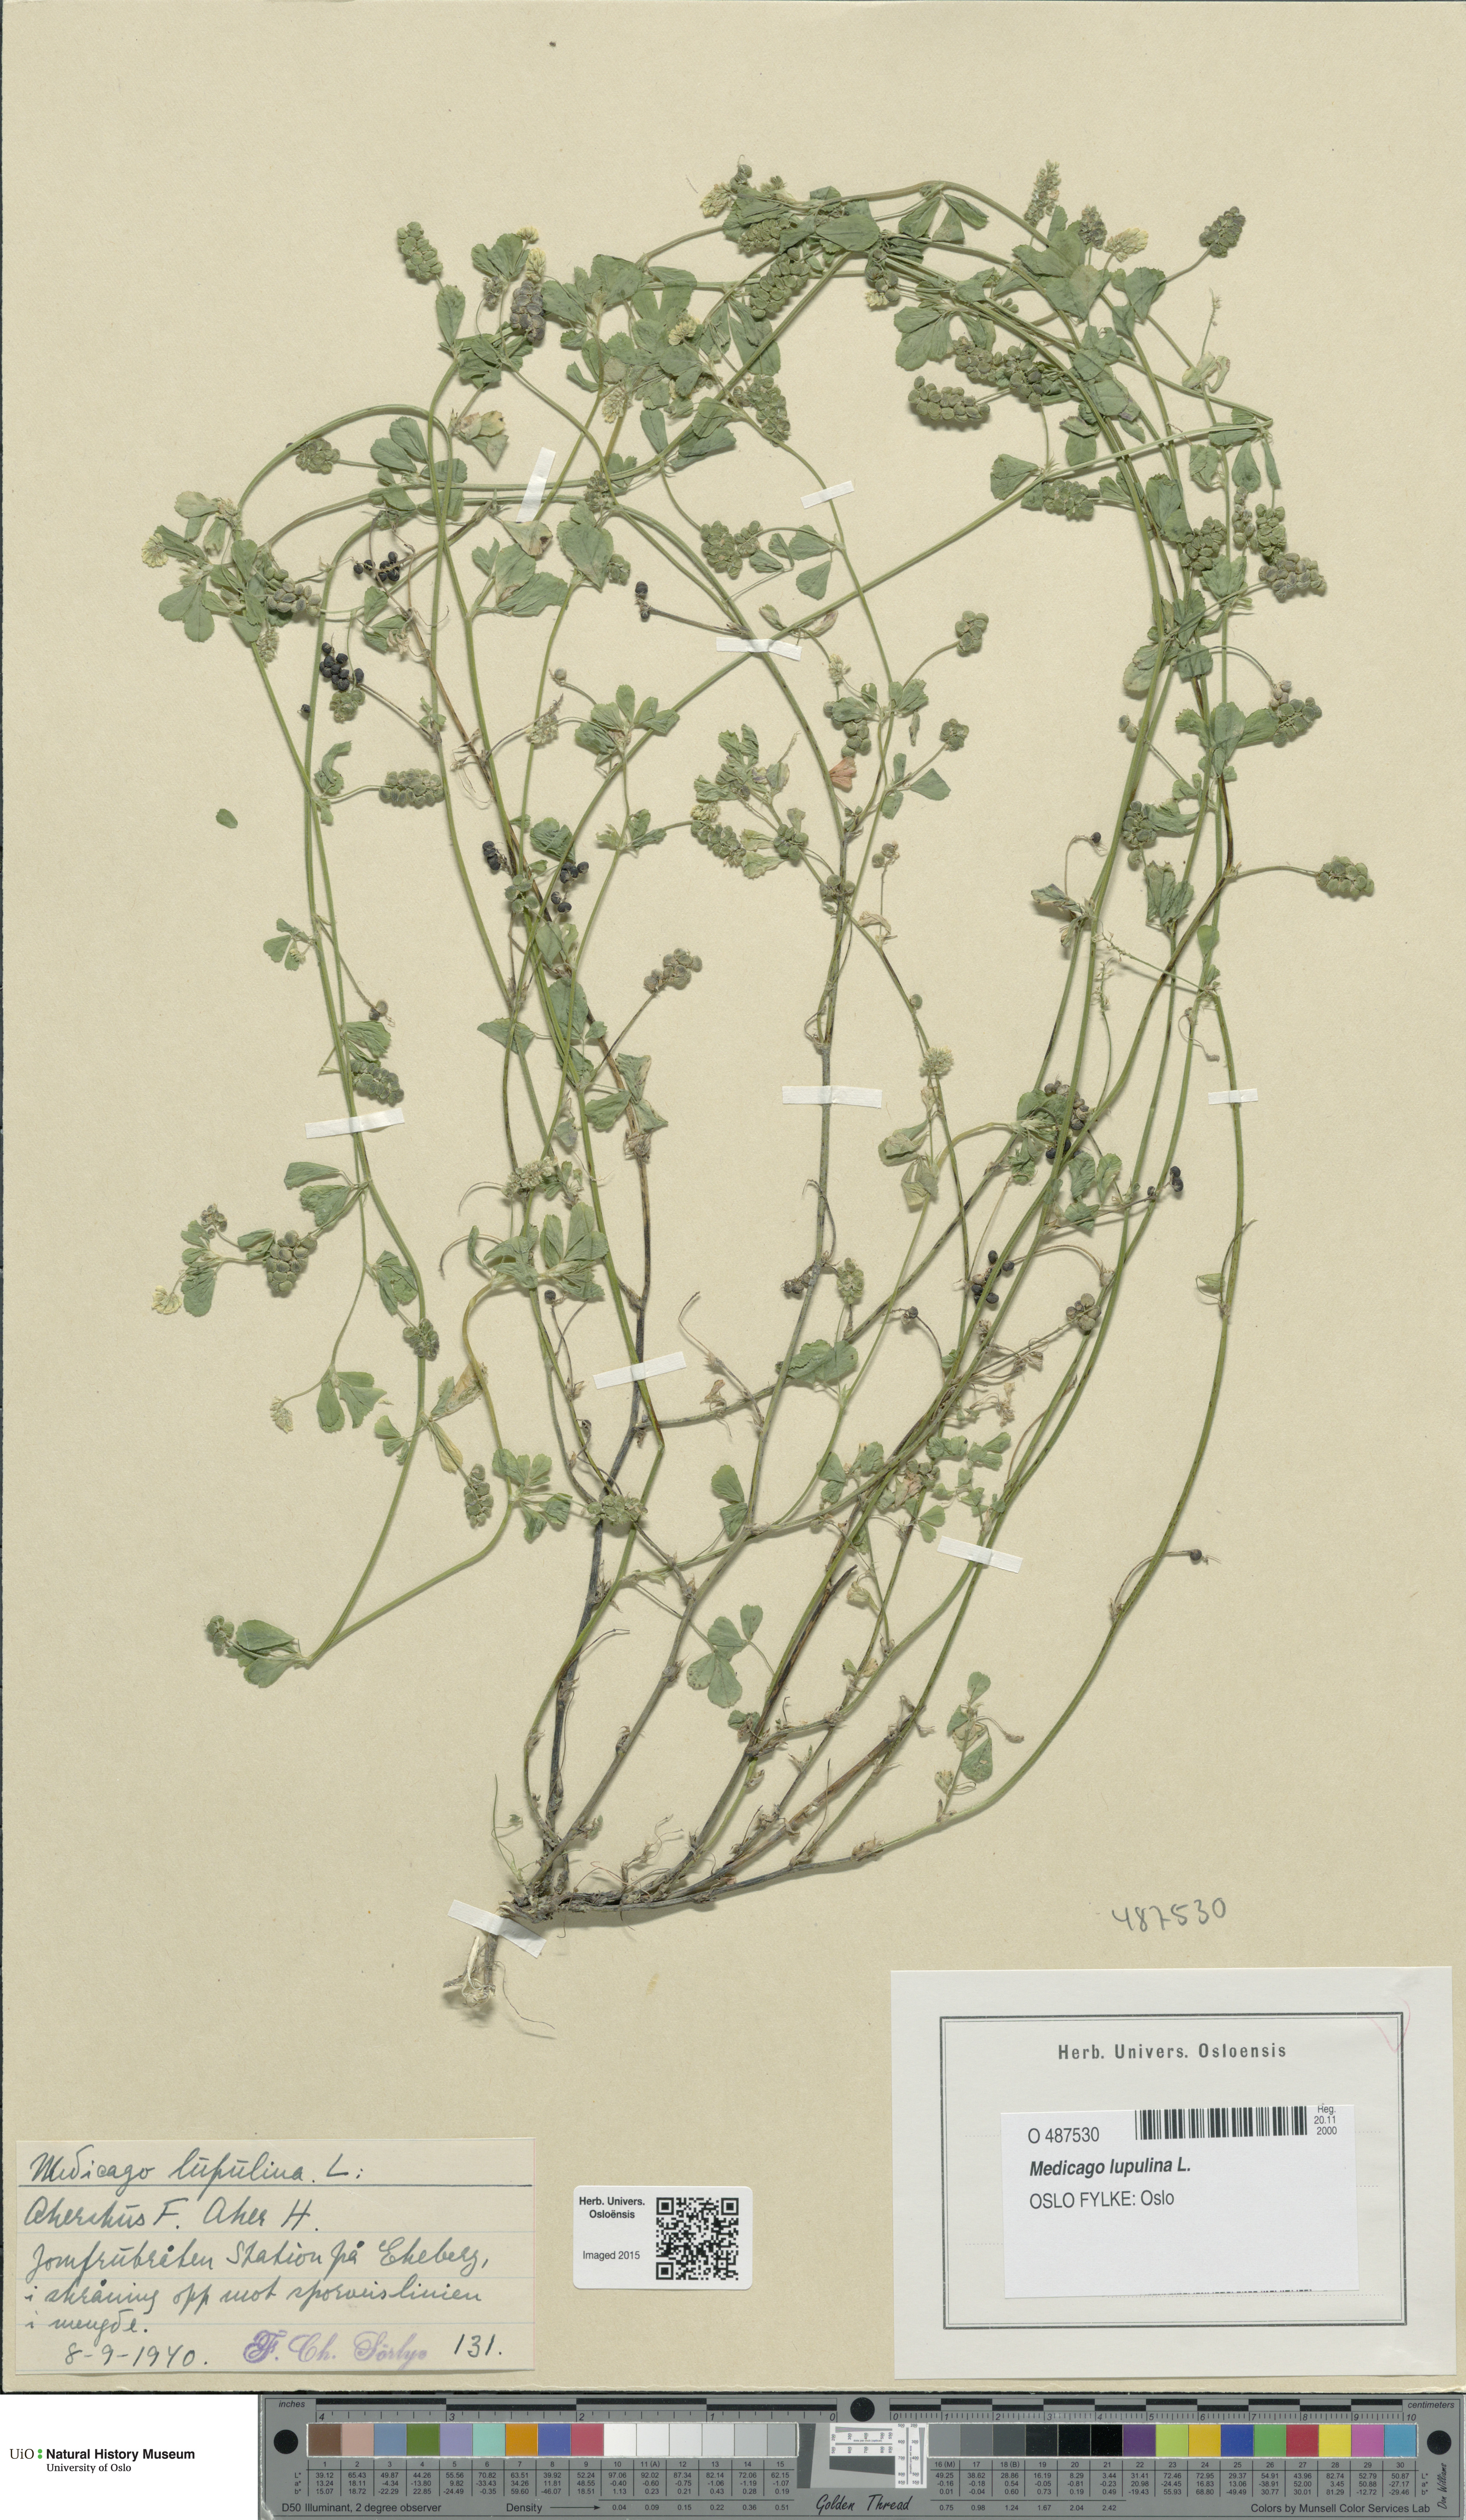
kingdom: Plantae
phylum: Tracheophyta
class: Magnoliopsida
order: Fabales
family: Fabaceae
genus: Medicago
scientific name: Medicago lupulina
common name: Black medick
